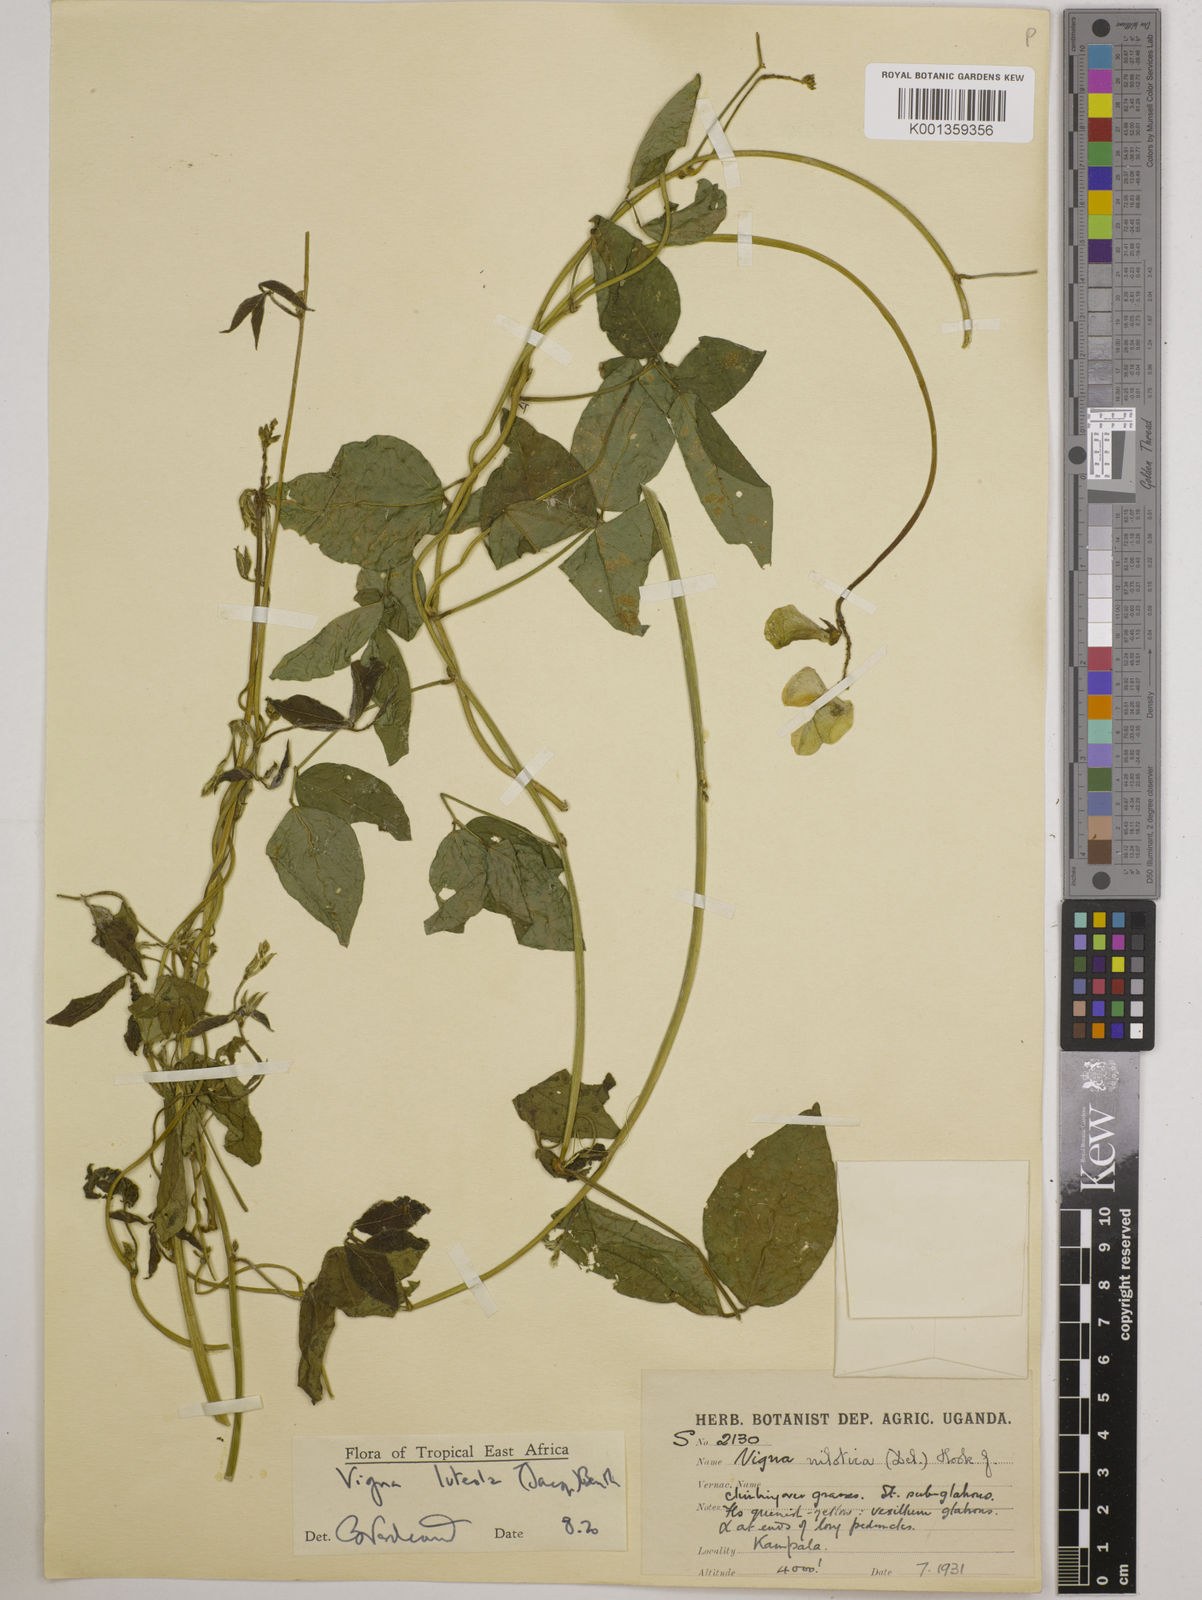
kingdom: Plantae
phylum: Tracheophyta
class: Magnoliopsida
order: Fabales
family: Fabaceae
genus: Vigna
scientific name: Vigna luteola
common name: Hairypod cowpea
